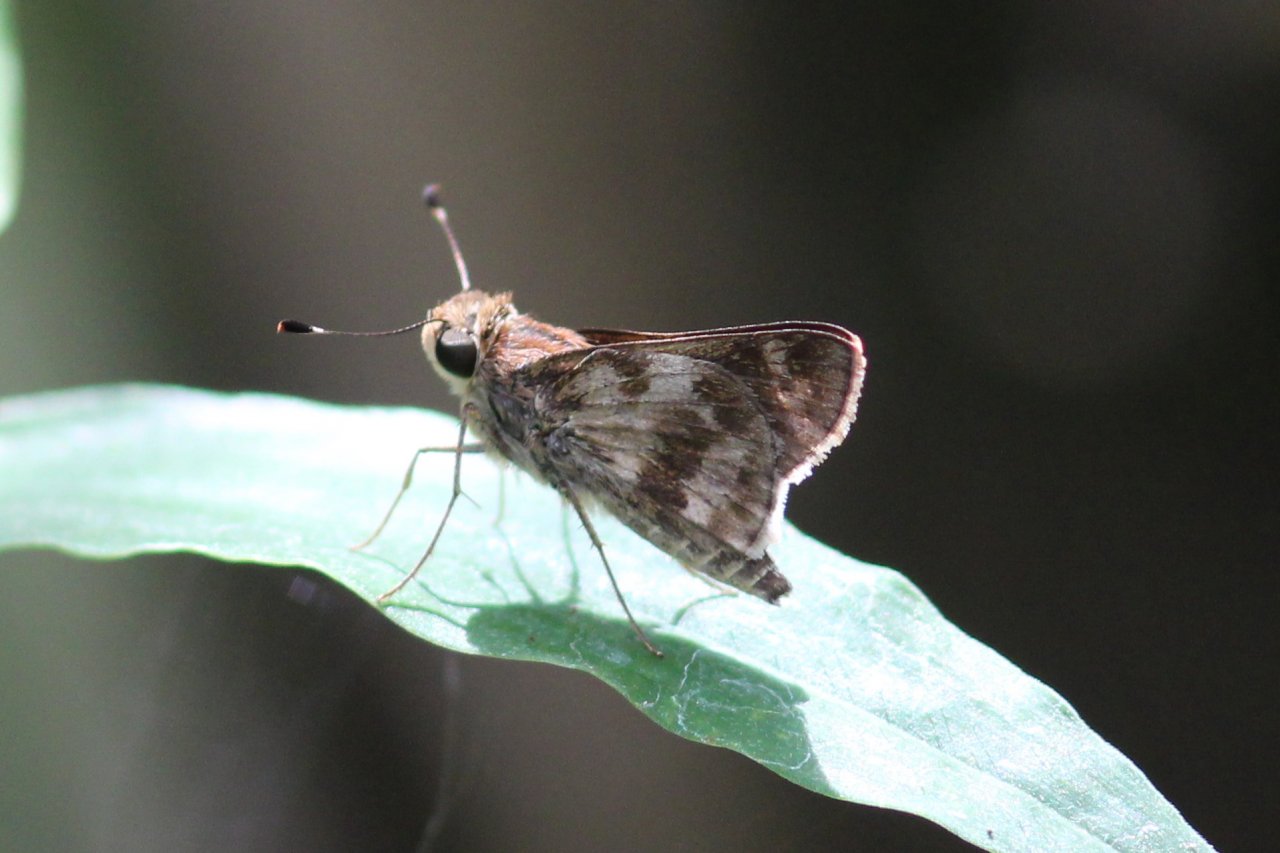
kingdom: Animalia
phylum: Arthropoda
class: Insecta
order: Lepidoptera
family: Hesperiidae
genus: Pompeius
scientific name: Pompeius pompeius
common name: Pompeius Skipper
